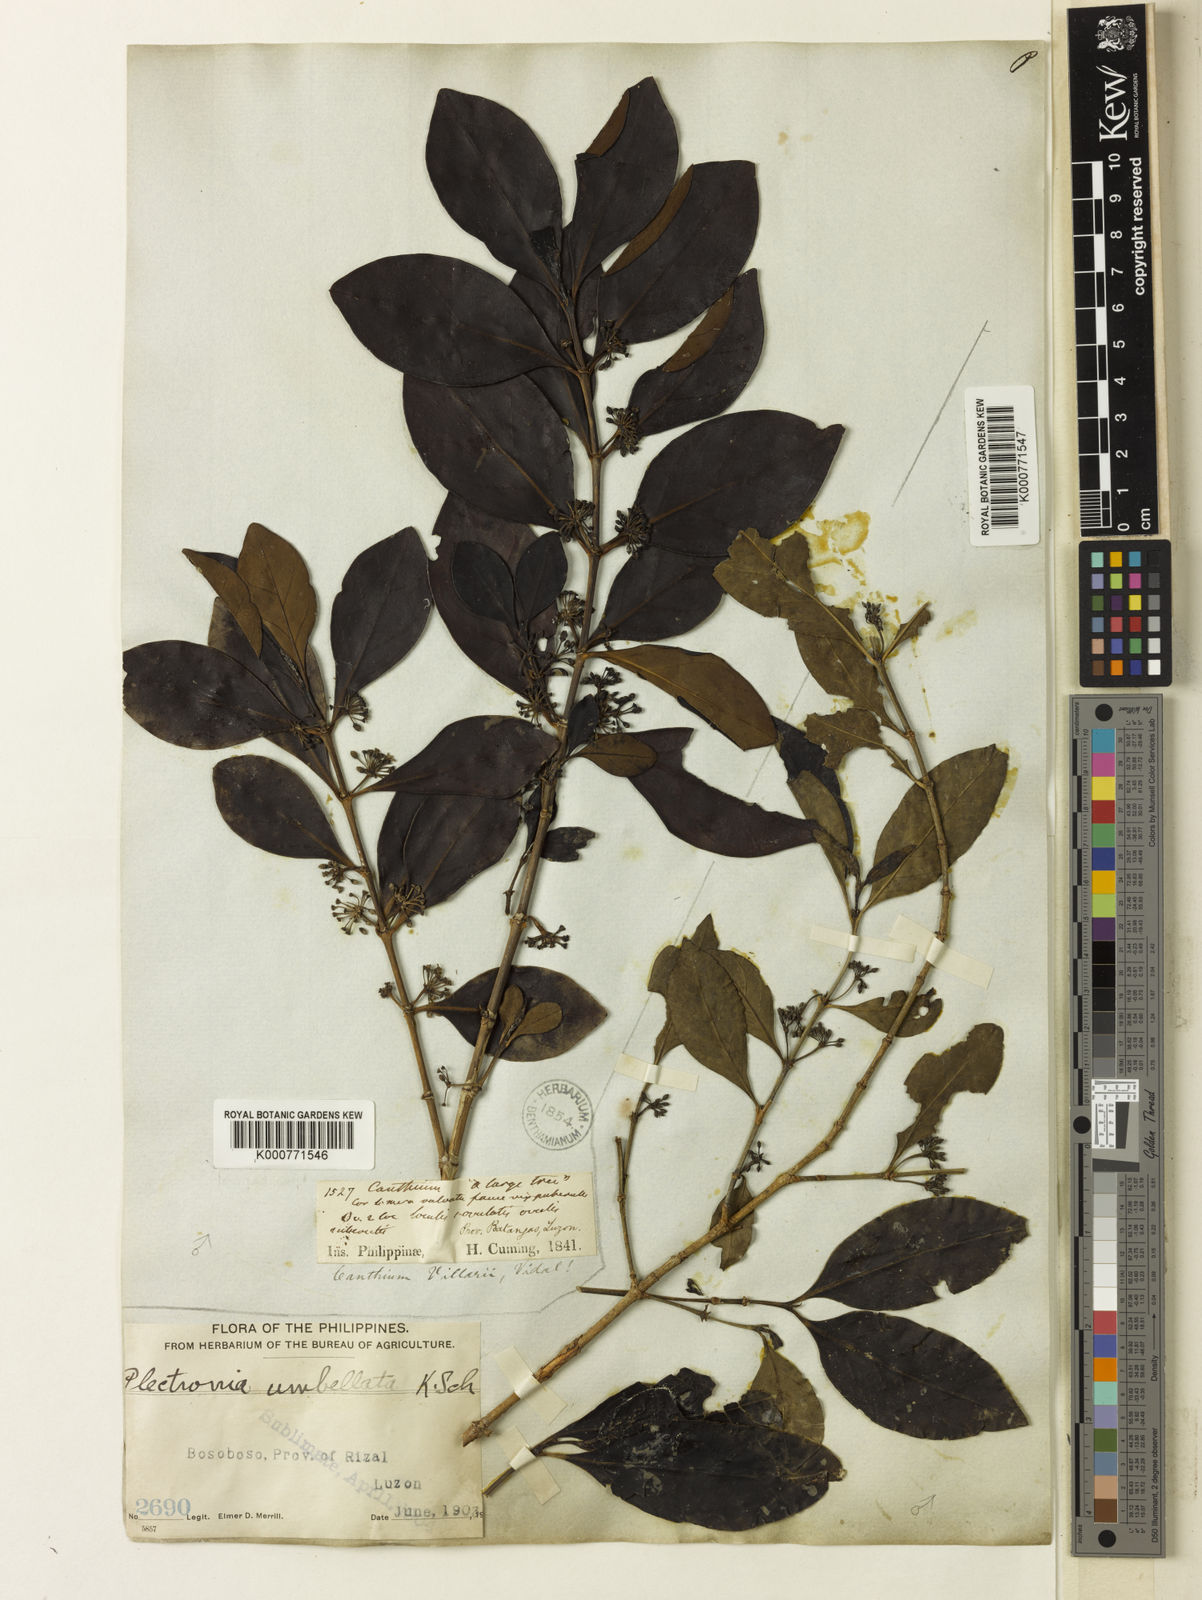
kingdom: Plantae
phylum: Tracheophyta
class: Magnoliopsida
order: Gentianales
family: Rubiaceae
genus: Canthium
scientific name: Canthium villarii
